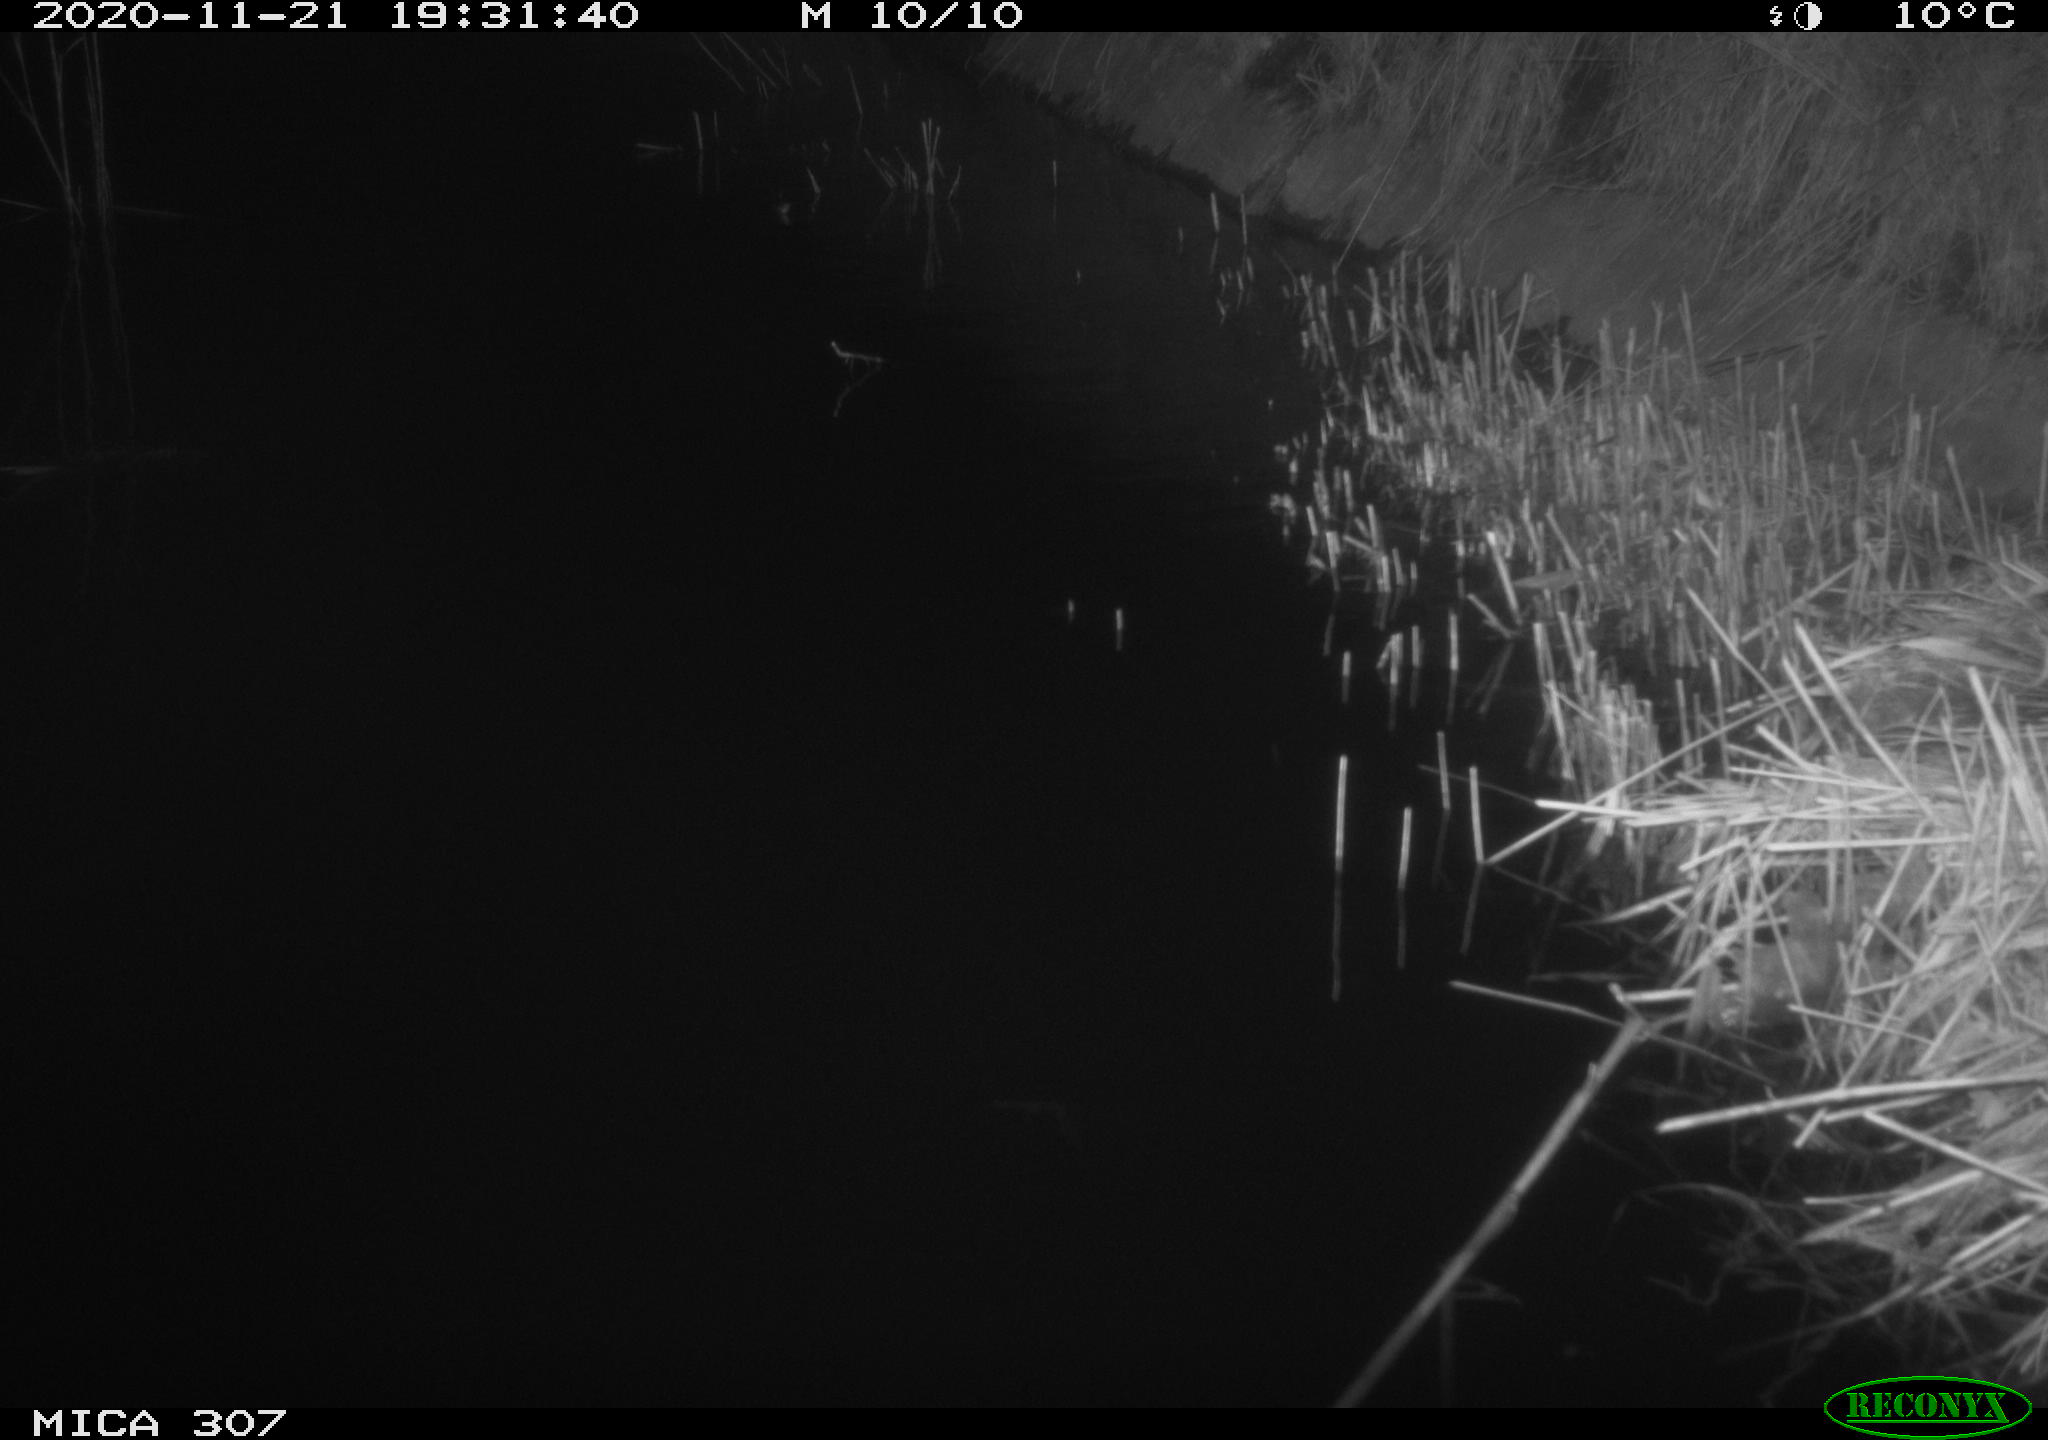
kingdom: Animalia
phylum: Chordata
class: Mammalia
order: Rodentia
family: Muridae
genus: Rattus
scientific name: Rattus norvegicus
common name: Brown rat
